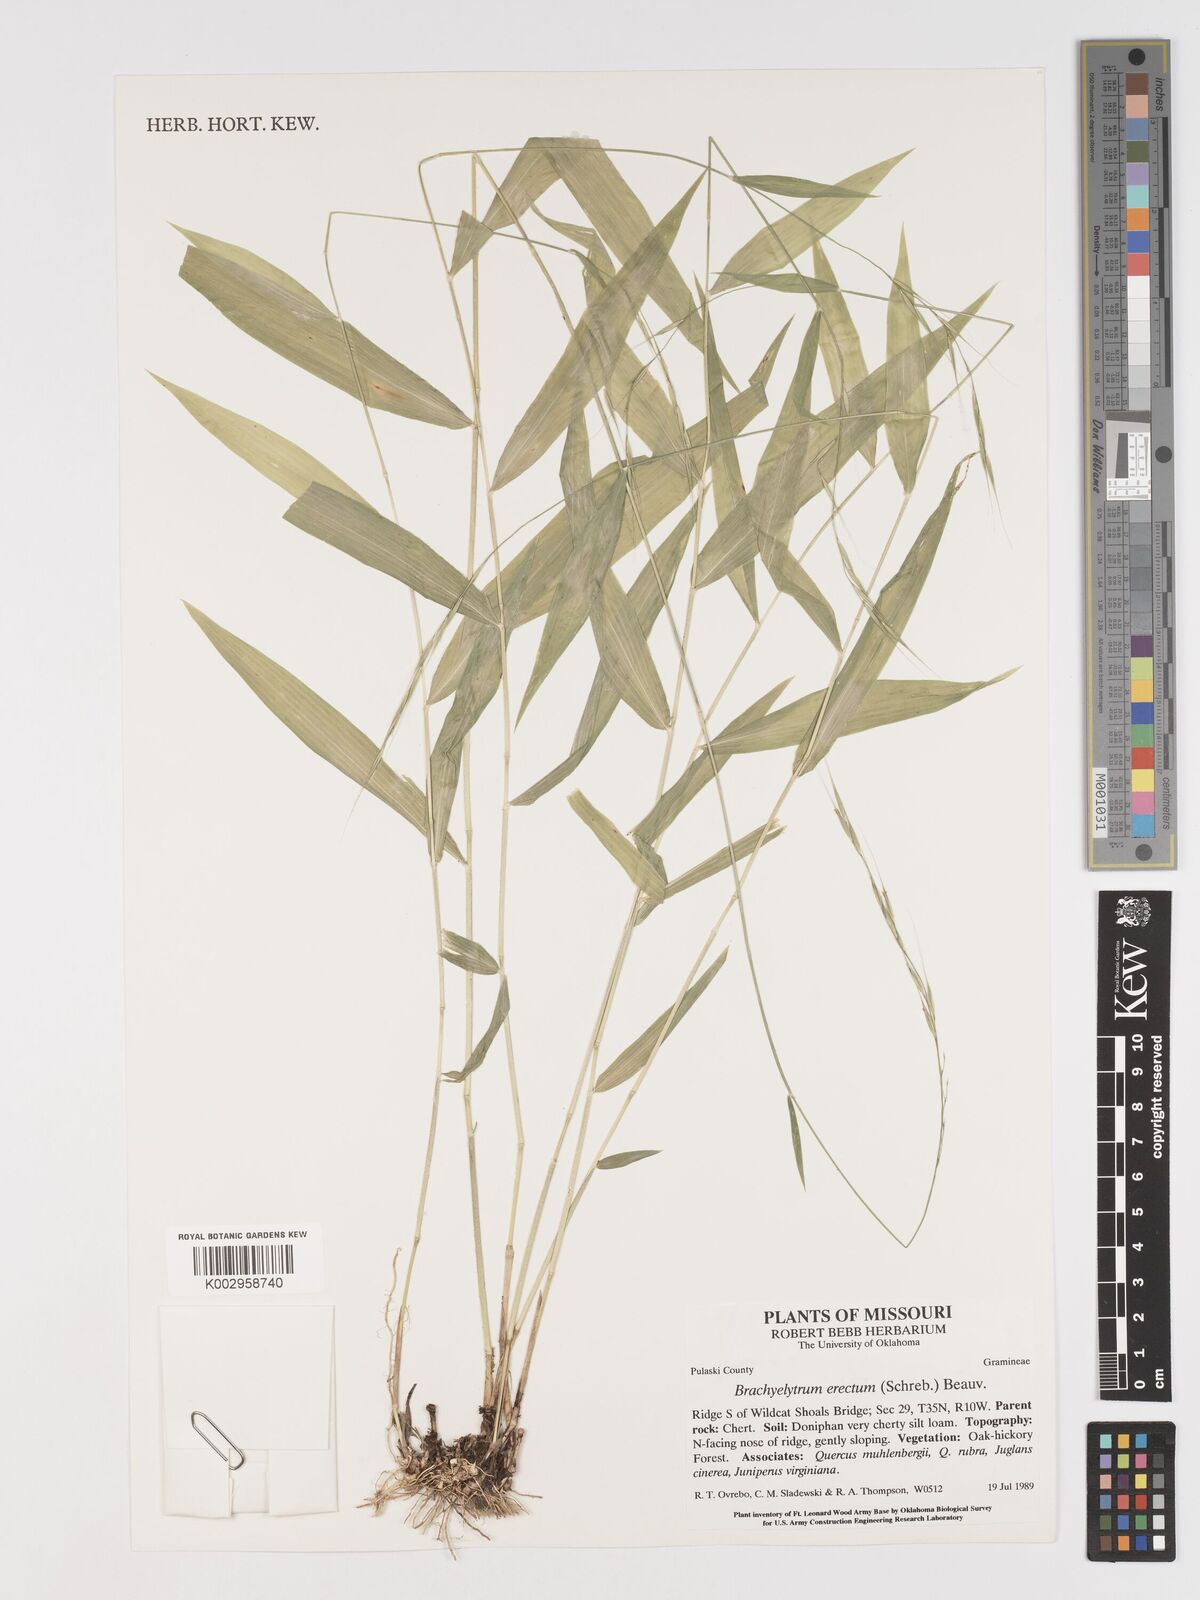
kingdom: Plantae
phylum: Tracheophyta
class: Liliopsida
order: Poales
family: Poaceae
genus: Brachyelytrum
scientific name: Brachyelytrum erectum
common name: Bearded shorthusk
